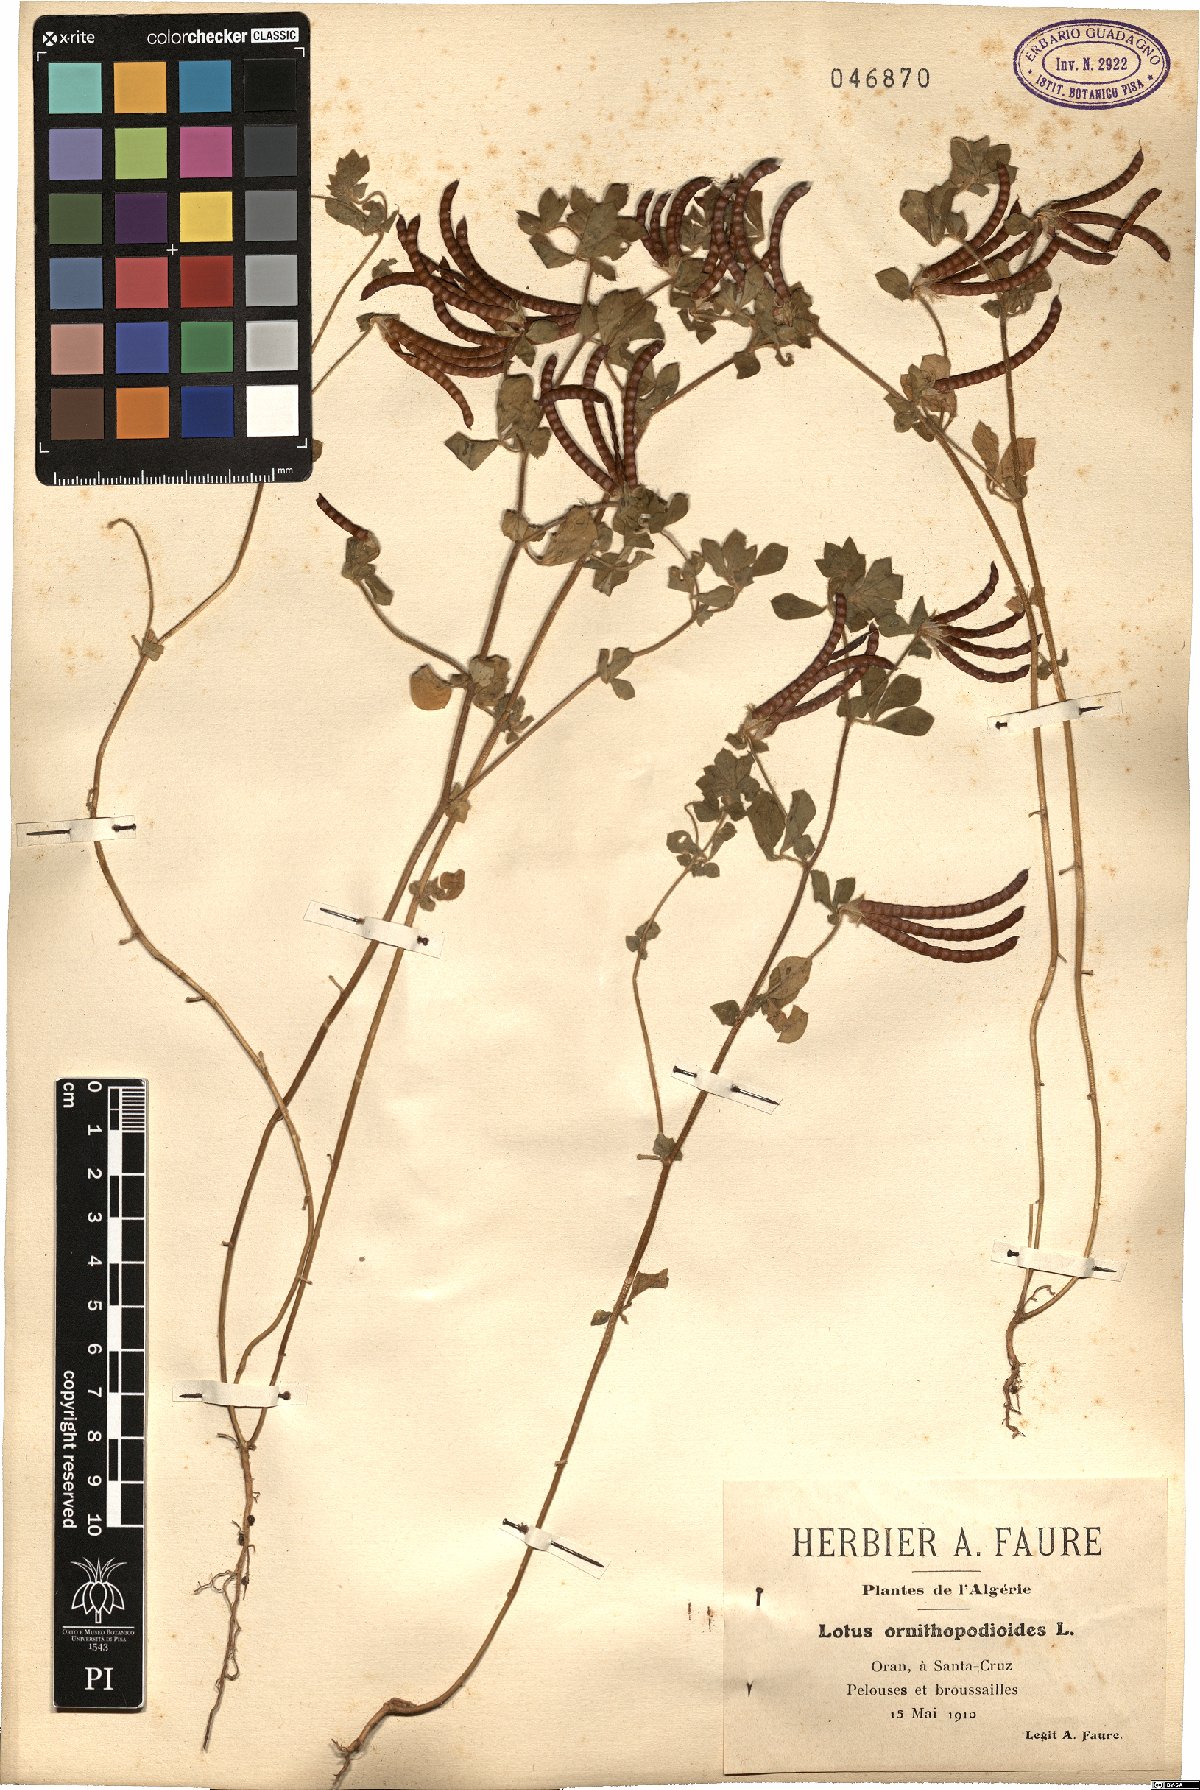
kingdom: Plantae
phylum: Tracheophyta
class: Magnoliopsida
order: Fabales
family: Fabaceae
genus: Lotus
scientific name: Lotus ornithopodioides
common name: Southern bird's-foot trefoil
